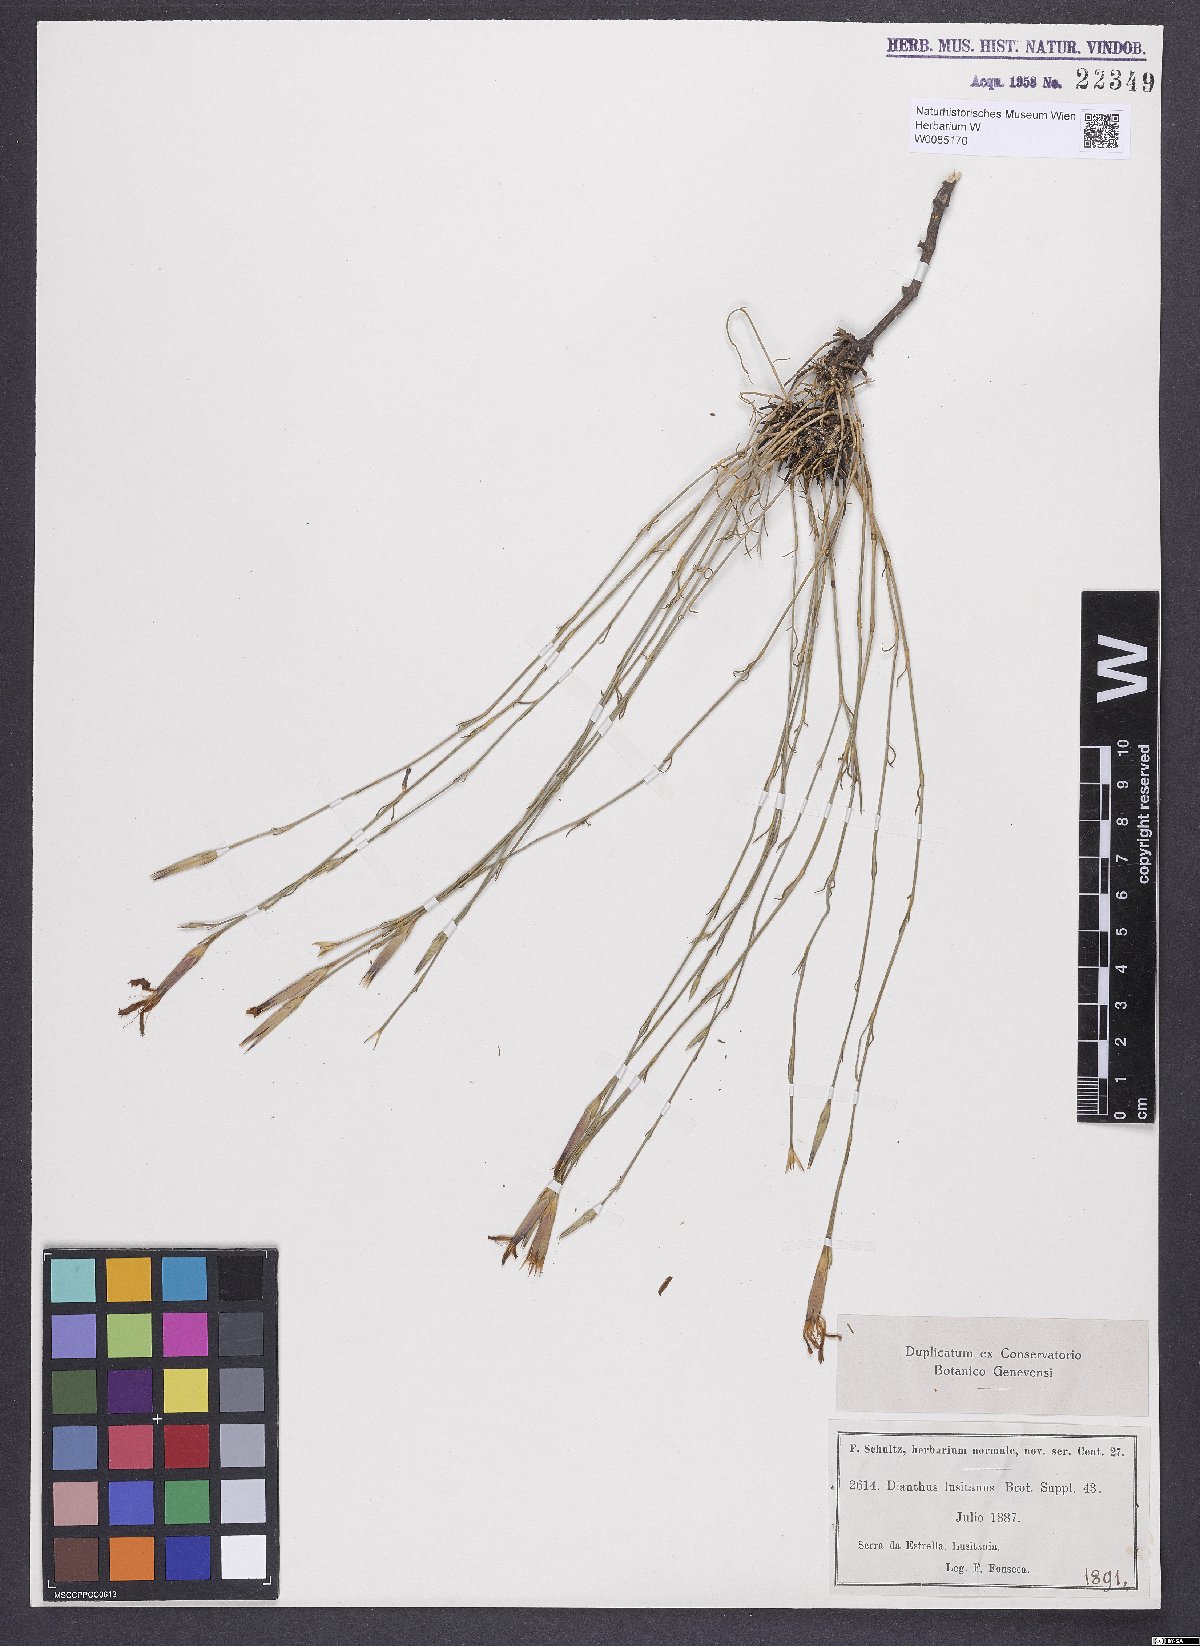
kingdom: Plantae
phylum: Tracheophyta
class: Magnoliopsida
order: Caryophyllales
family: Caryophyllaceae
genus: Dianthus
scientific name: Dianthus lusitanus
